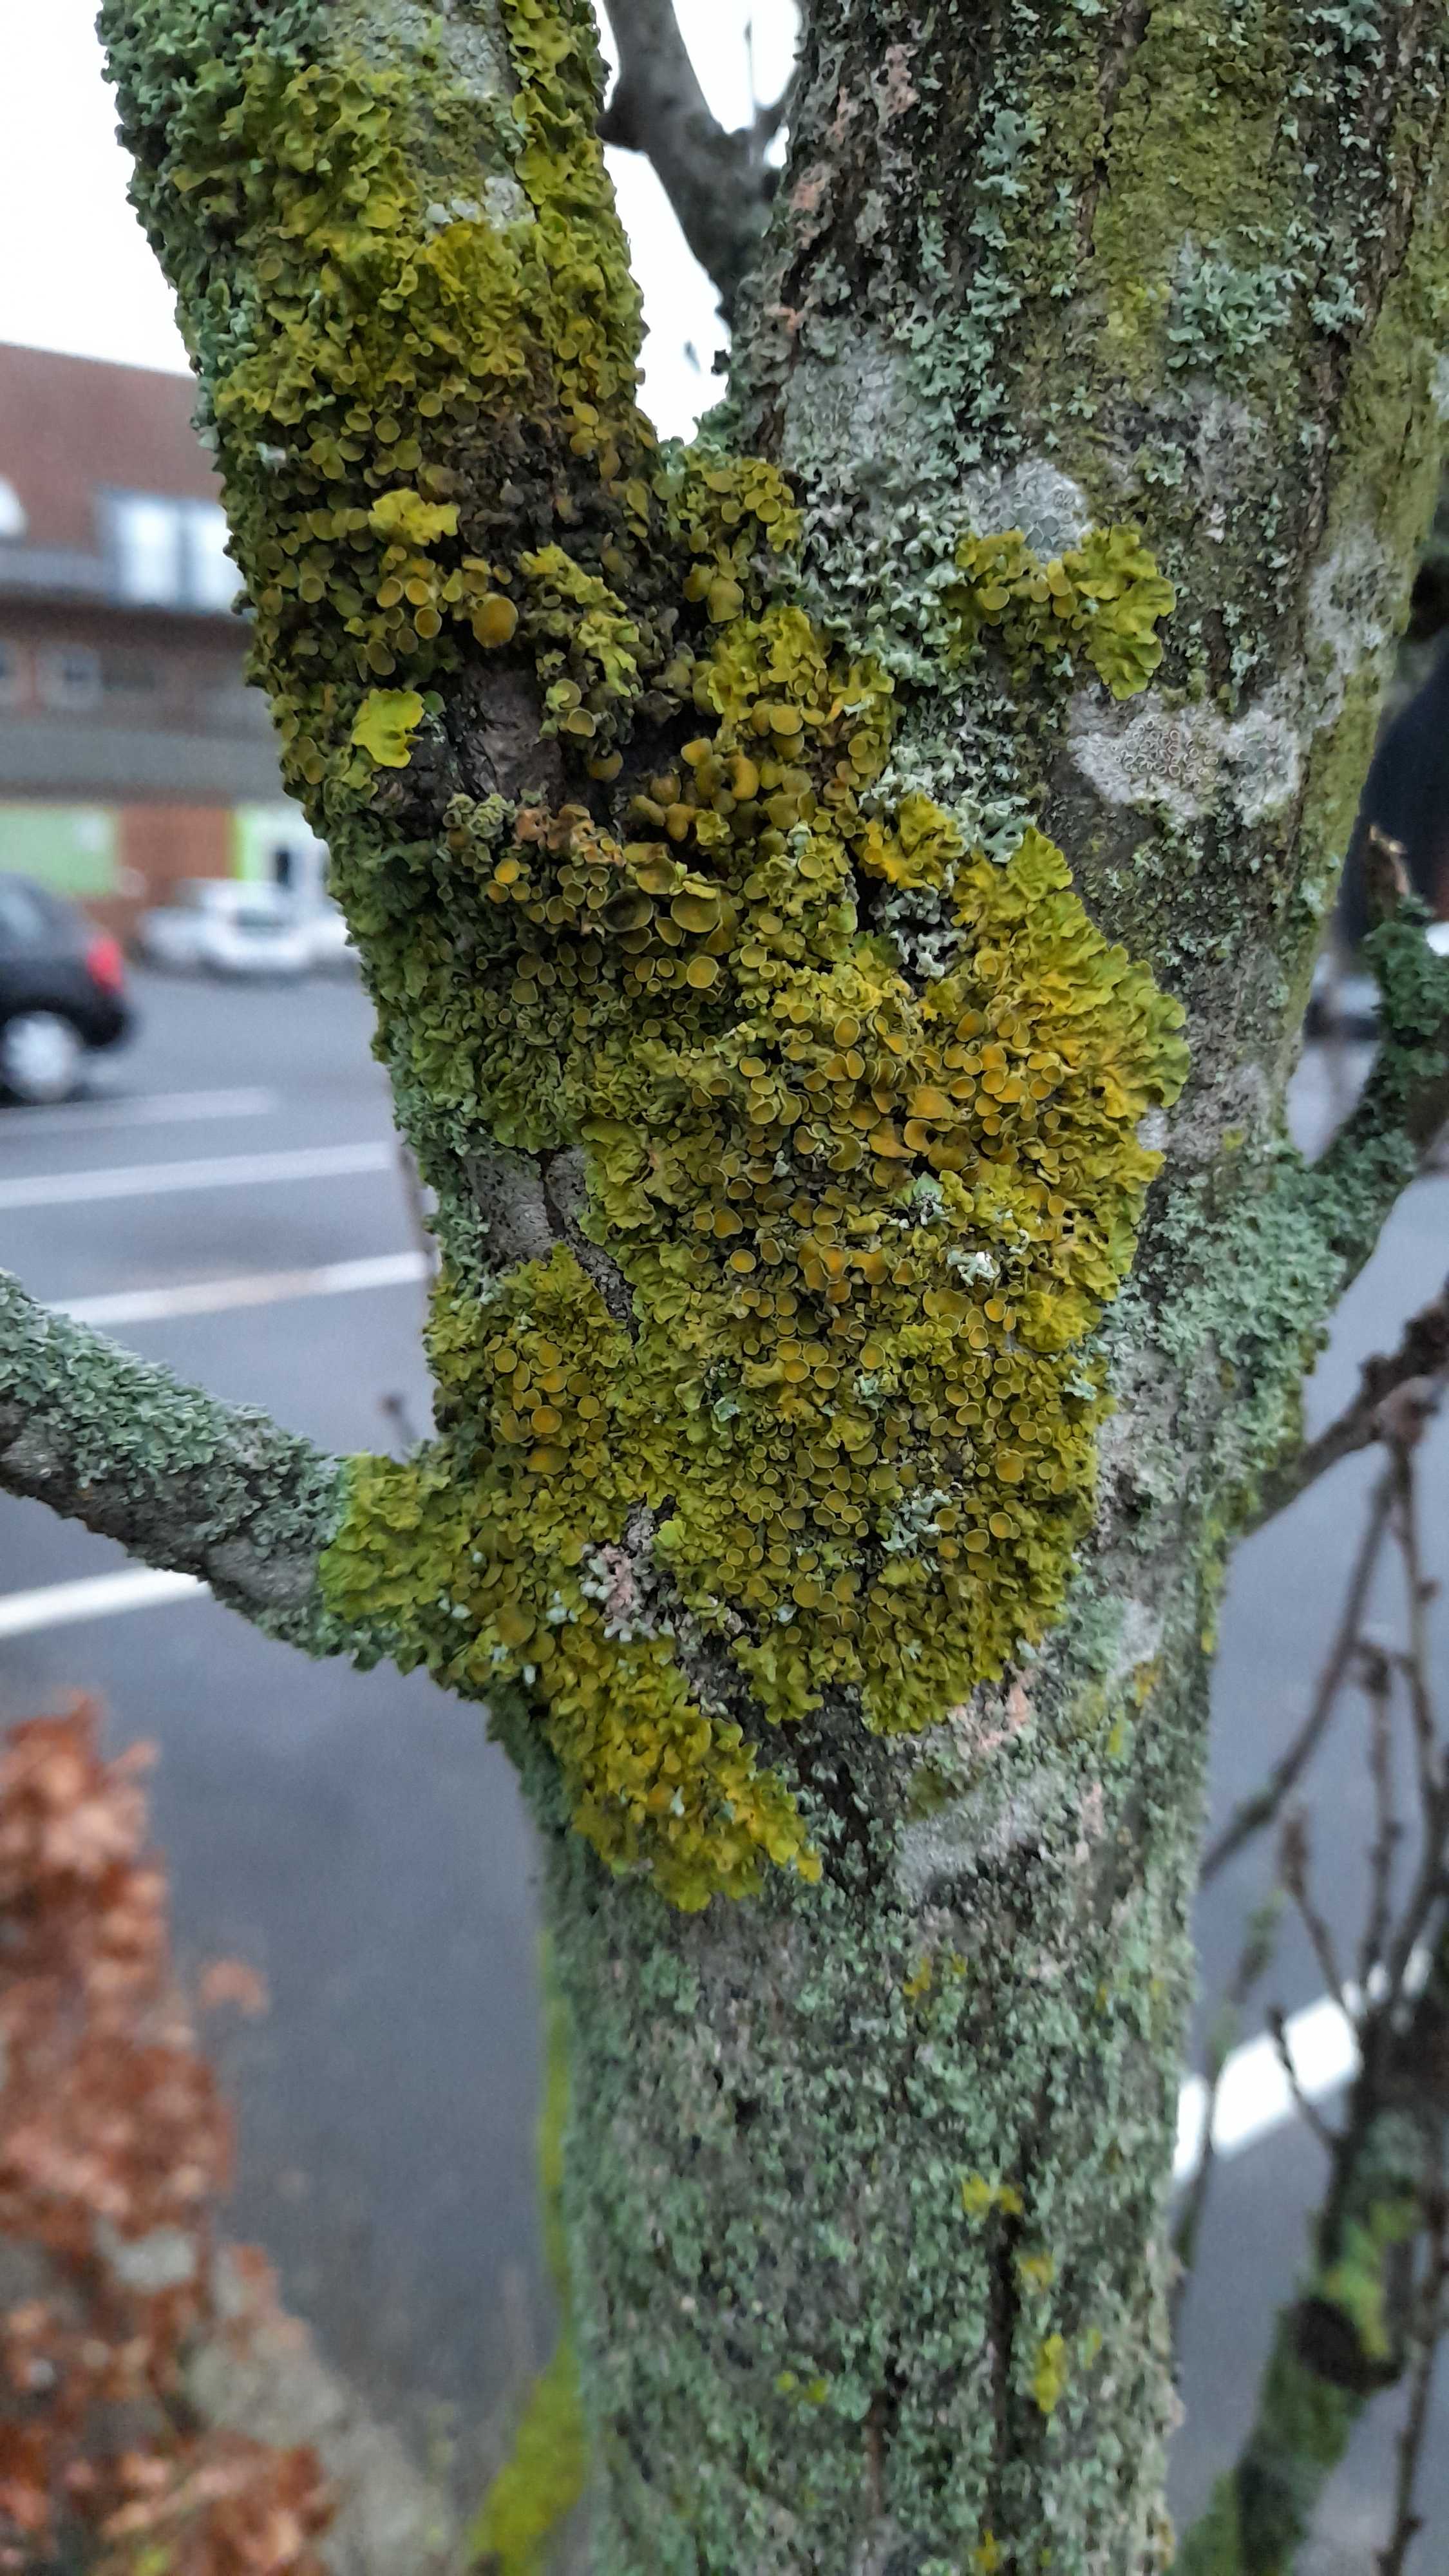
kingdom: Fungi
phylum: Ascomycota
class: Lecanoromycetes
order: Teloschistales
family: Teloschistaceae
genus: Xanthoria
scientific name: Xanthoria parietina
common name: almindelig væggelav
